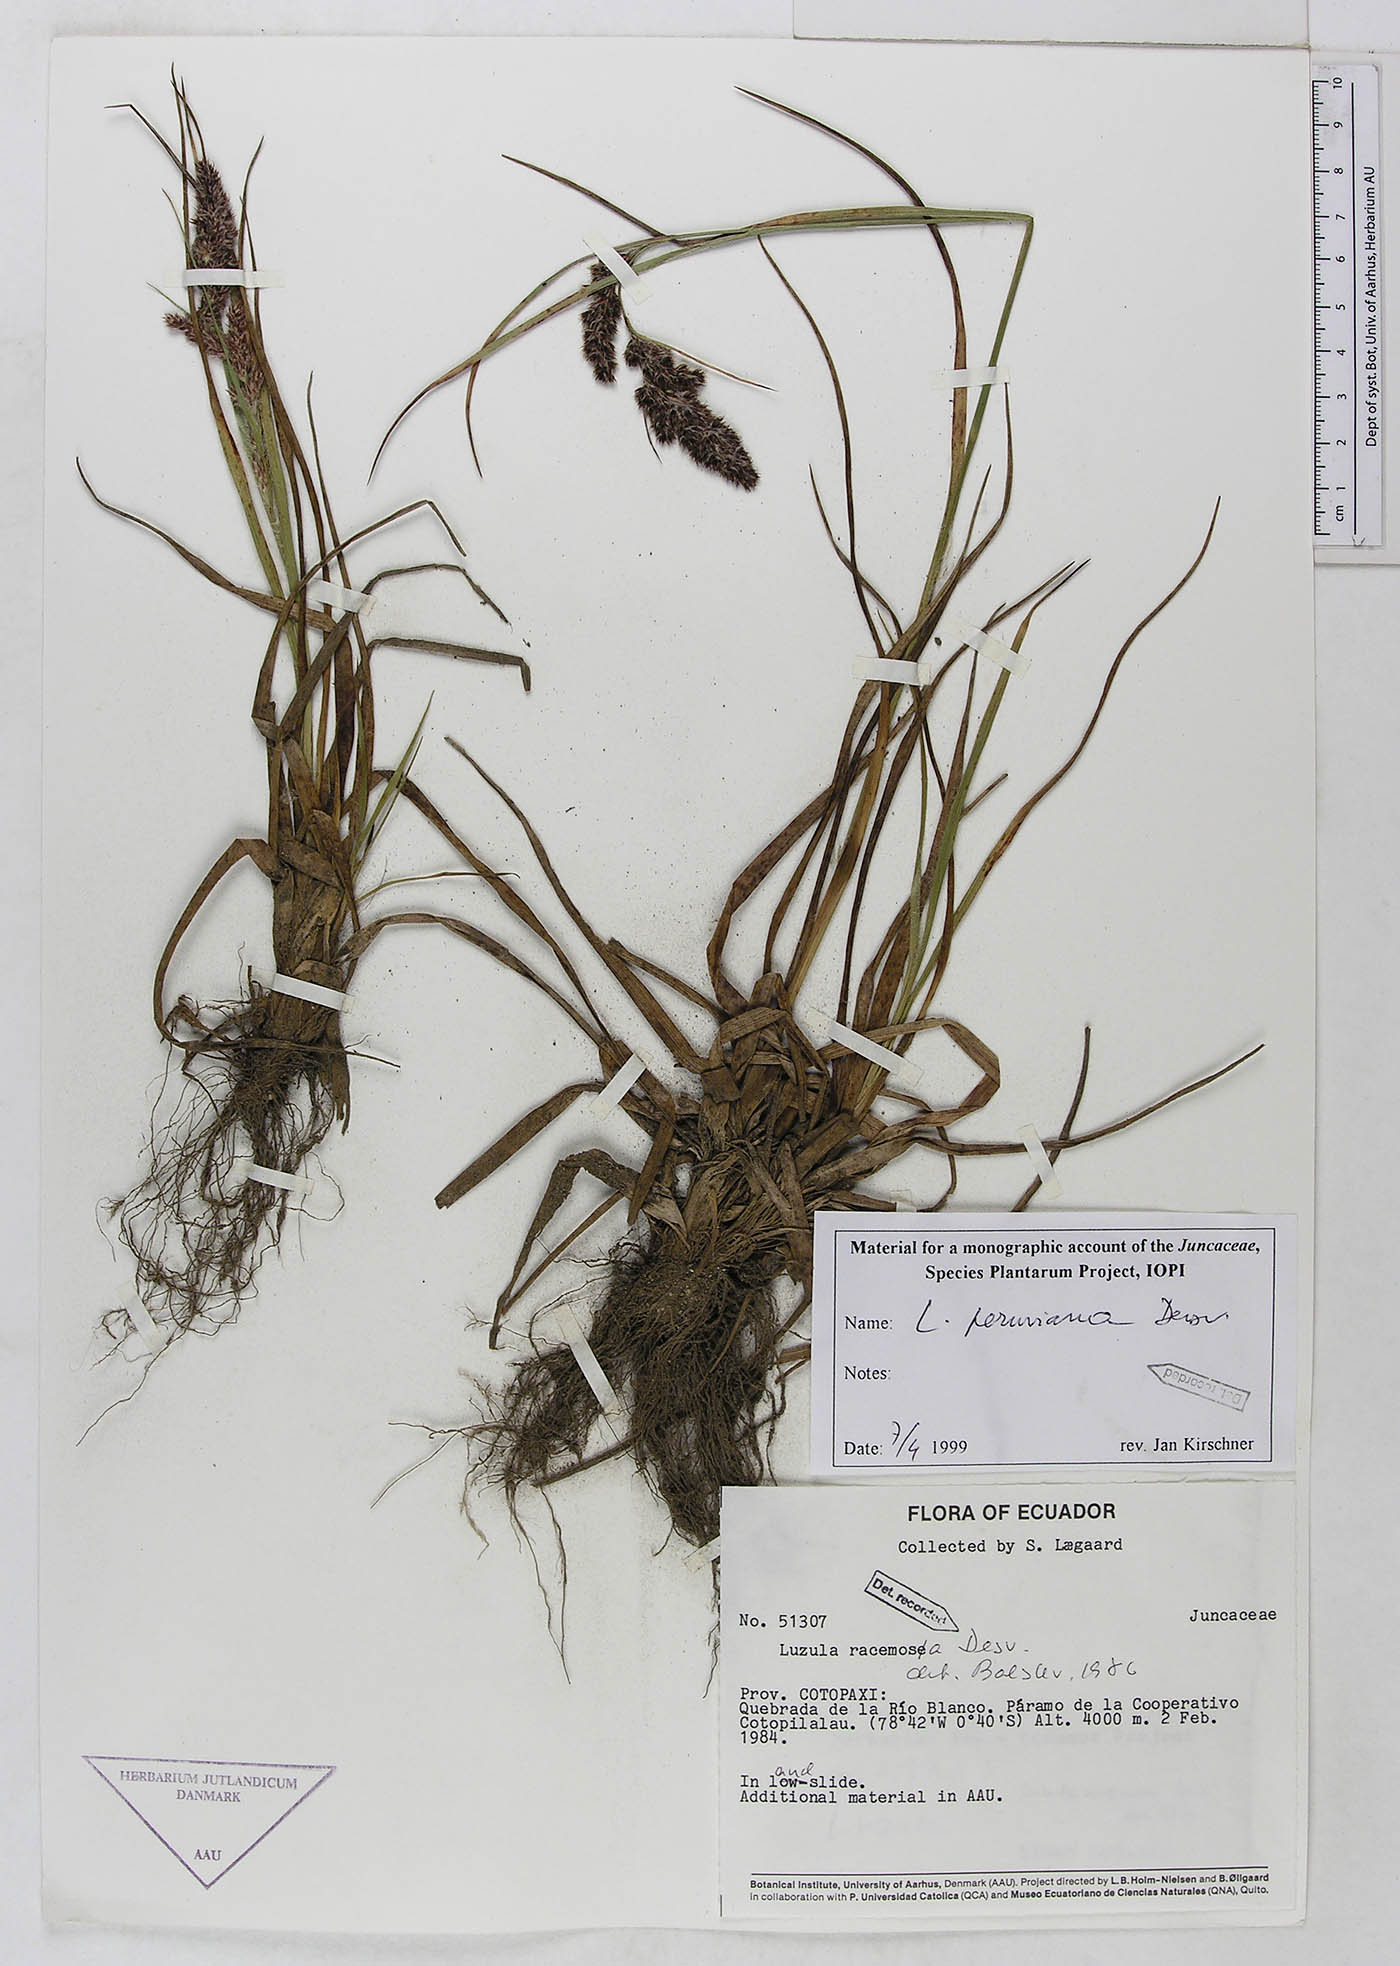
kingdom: Plantae
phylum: Tracheophyta
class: Liliopsida
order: Poales
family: Juncaceae
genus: Luzula
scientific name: Luzula peruviana
